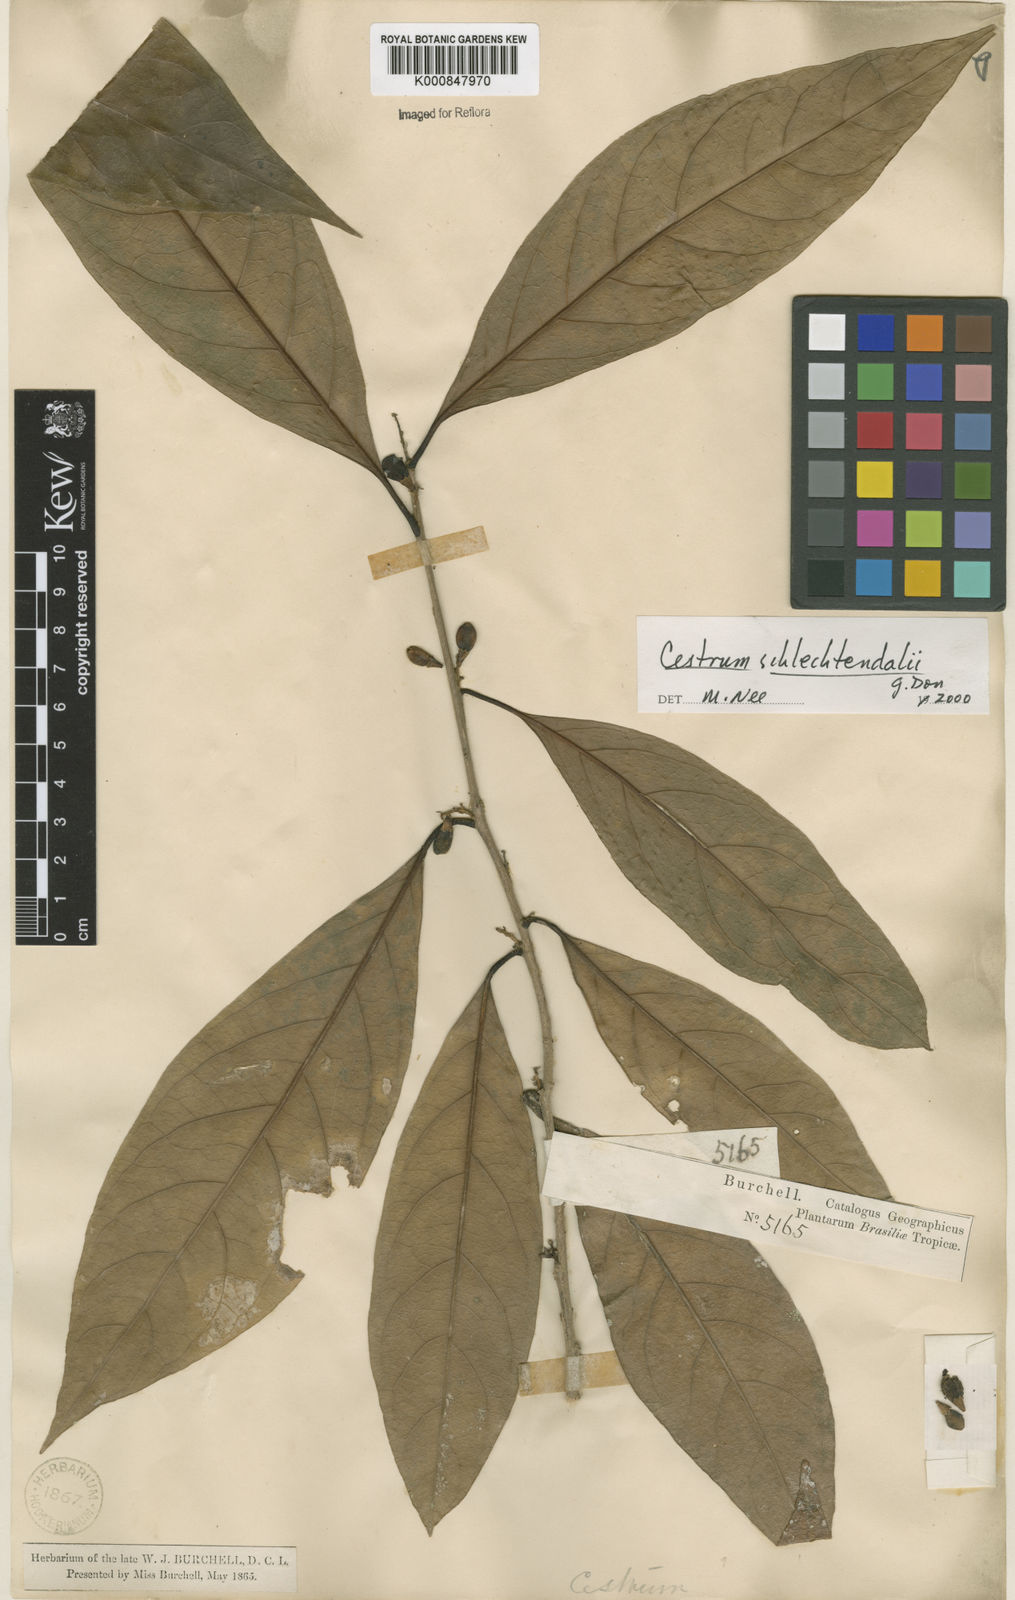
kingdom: Plantae
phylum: Tracheophyta
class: Magnoliopsida
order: Solanales
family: Solanaceae
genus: Cestrum
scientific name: Cestrum schlechtendalii
